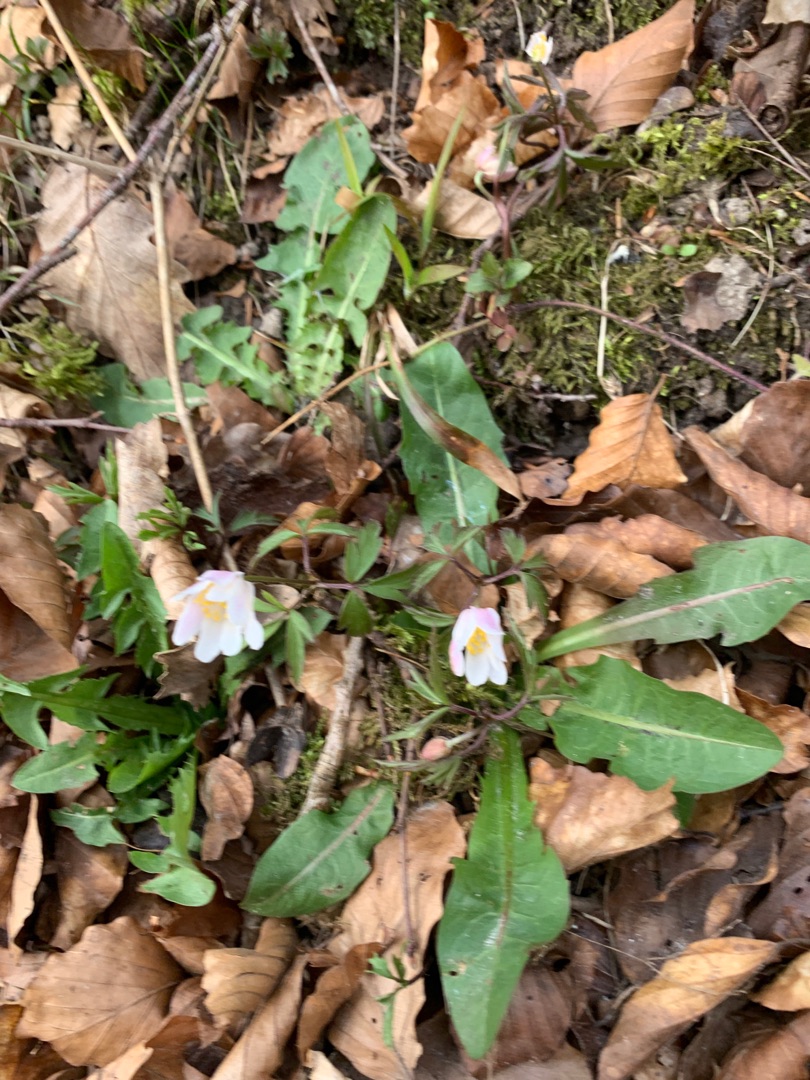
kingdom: Plantae
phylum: Tracheophyta
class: Magnoliopsida
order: Ranunculales
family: Ranunculaceae
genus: Anemone
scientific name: Anemone nemorosa
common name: Hvid anemone
